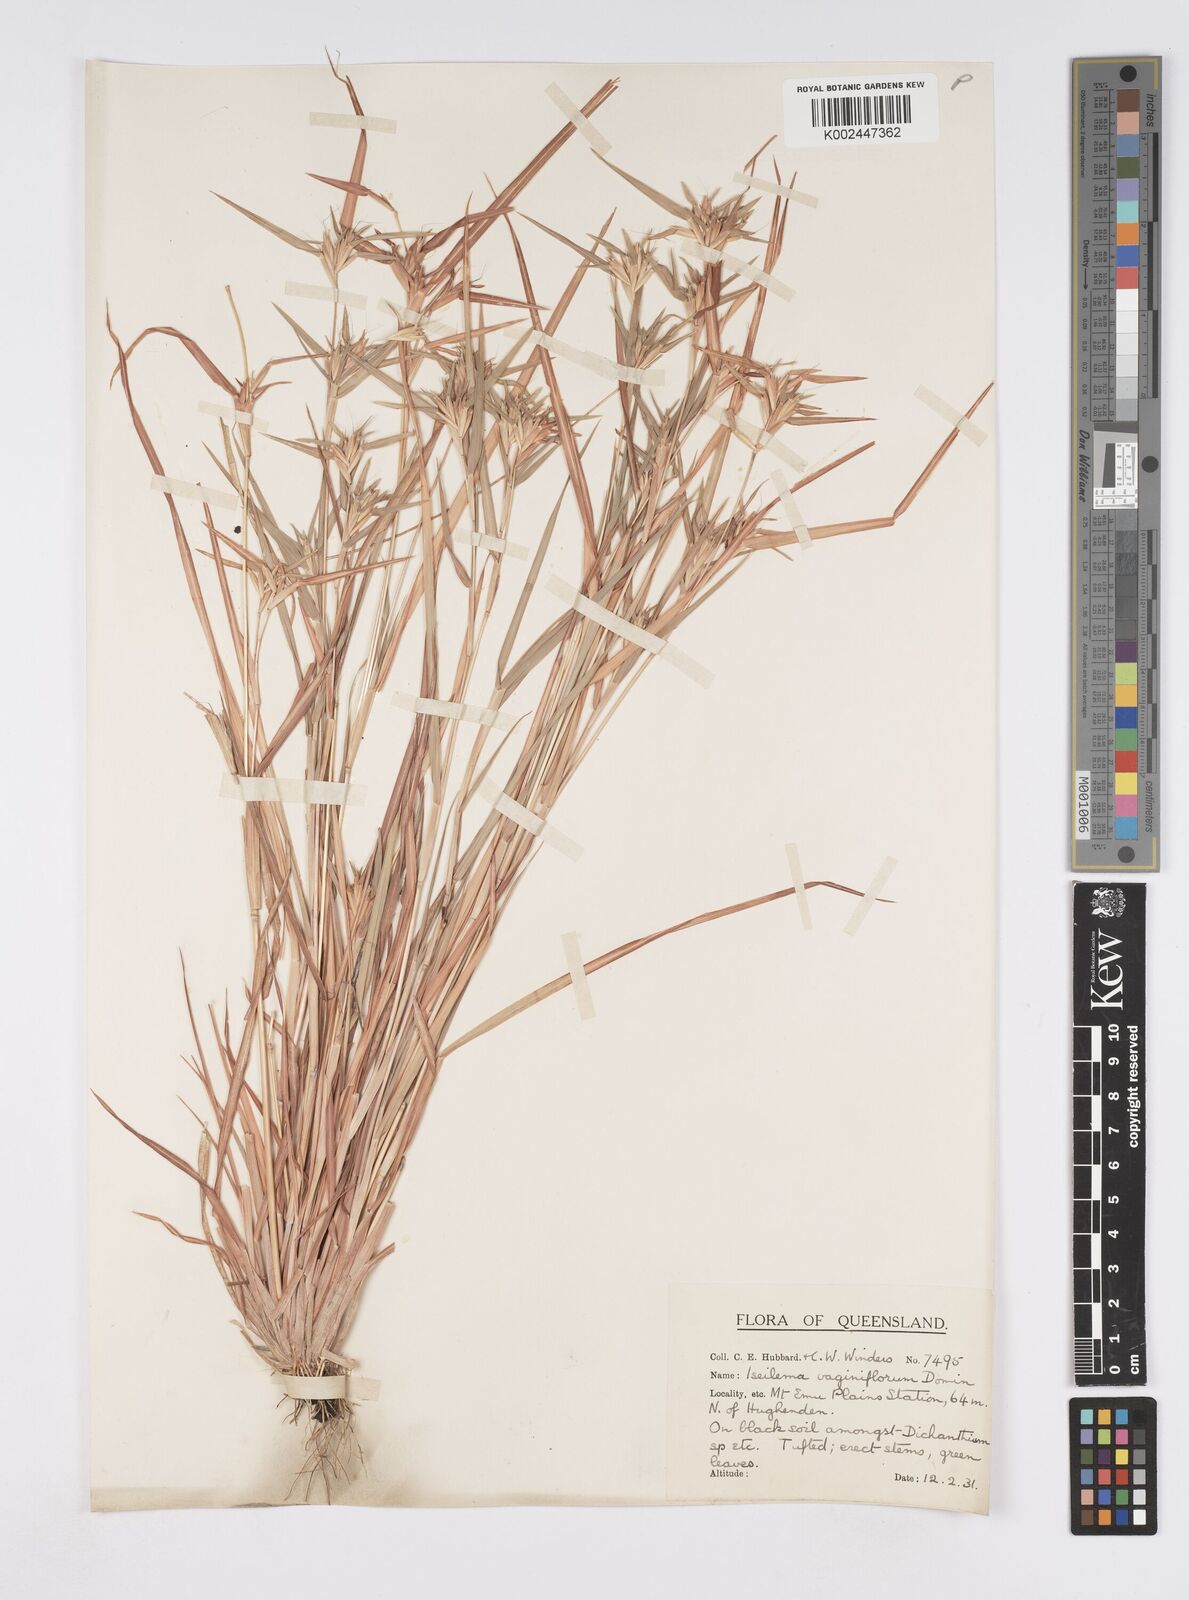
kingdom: Plantae
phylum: Tracheophyta
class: Liliopsida
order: Poales
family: Poaceae
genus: Iseilema
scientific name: Iseilema vaginiflorum
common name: Red flinders grass
